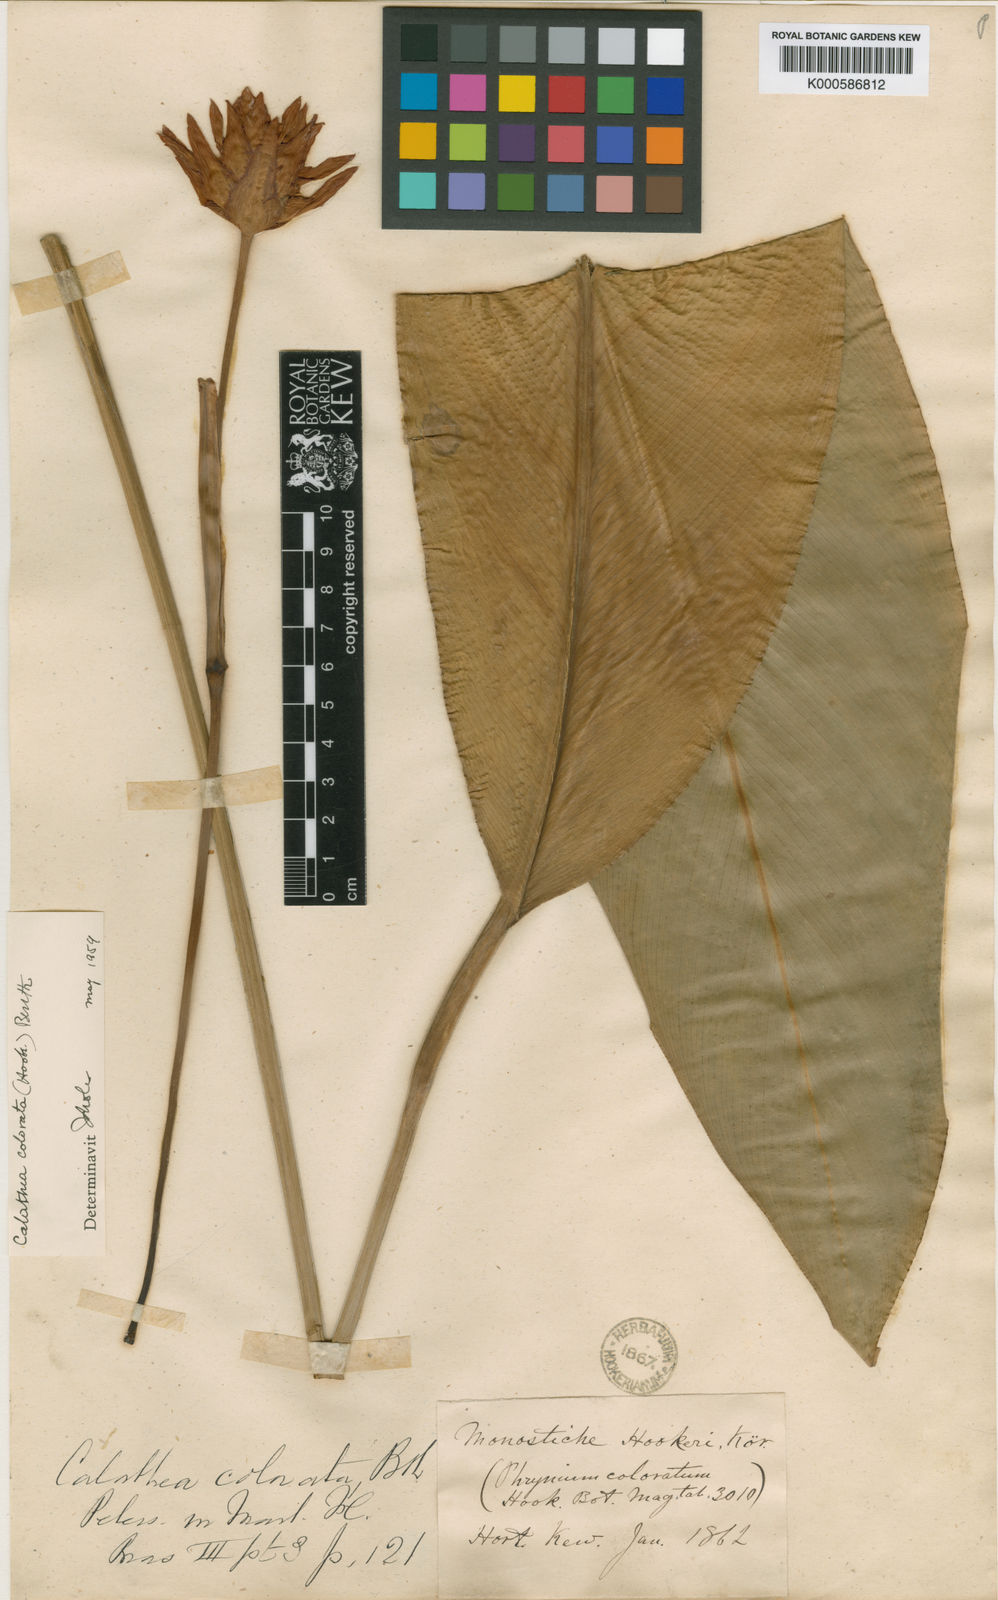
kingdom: Plantae
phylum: Tracheophyta
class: Liliopsida
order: Zingiberales
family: Marantaceae
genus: Calathea
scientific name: Calathea
